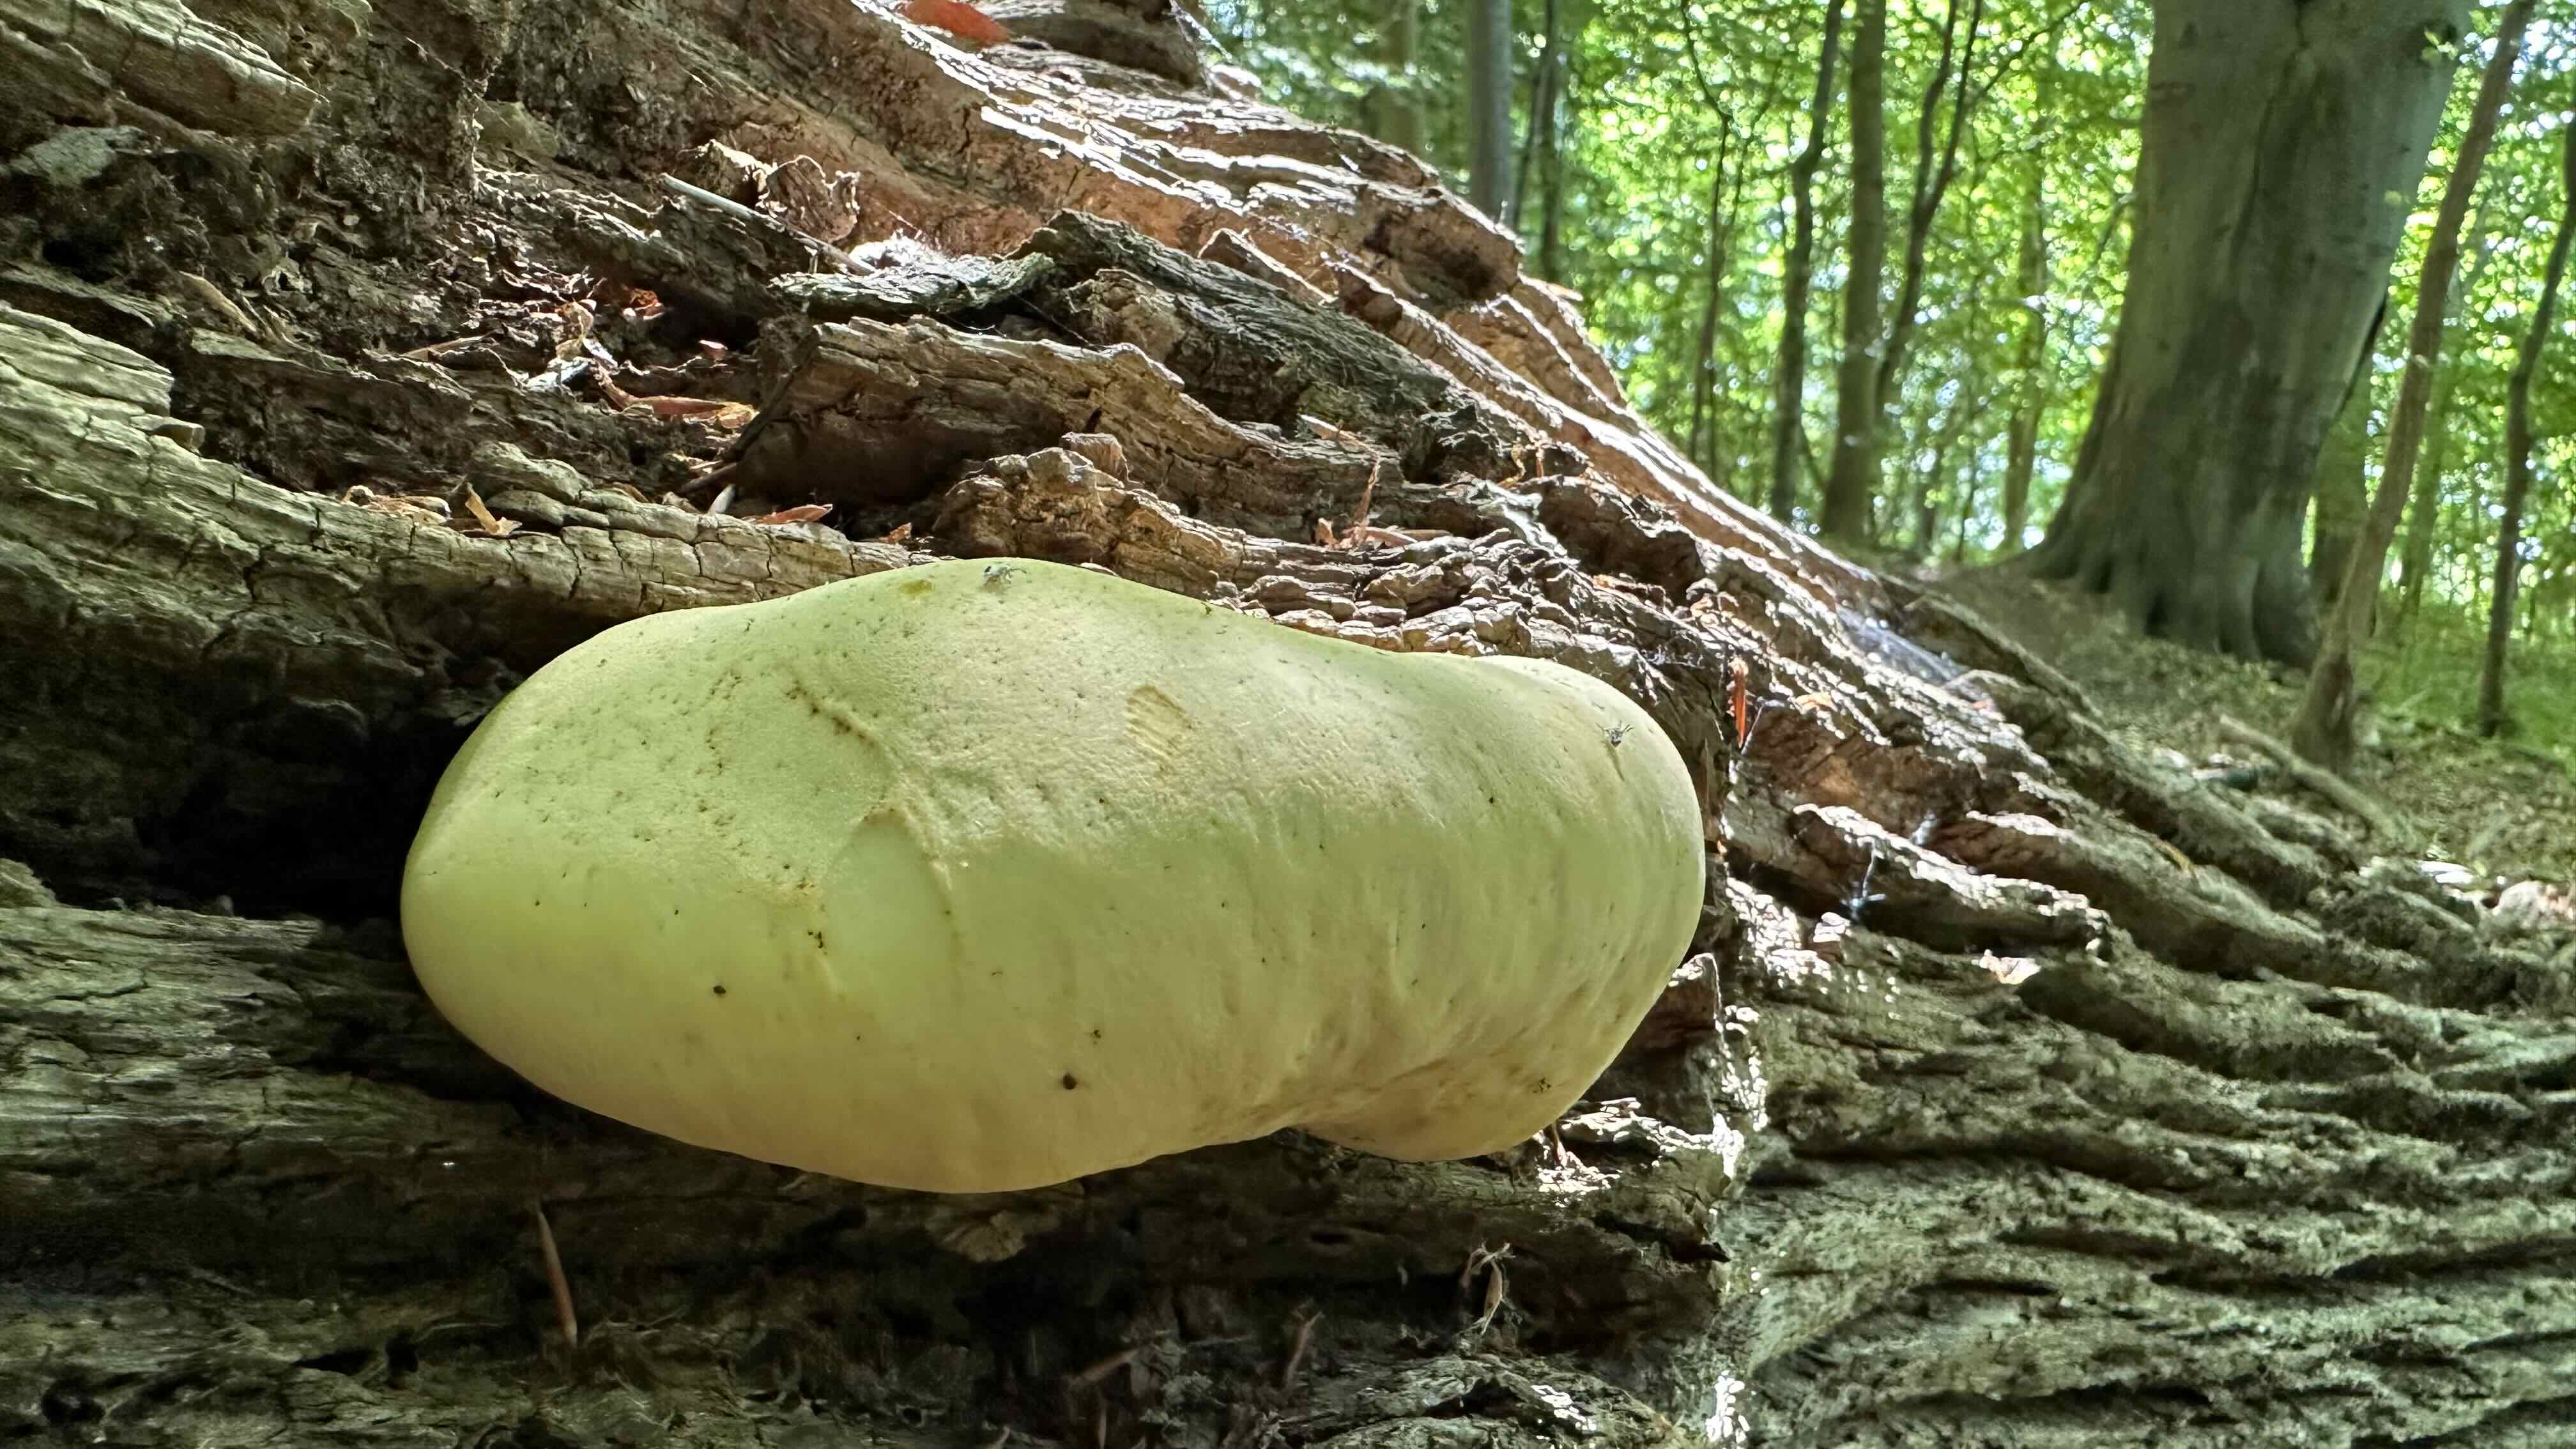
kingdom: Fungi
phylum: Basidiomycota
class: Agaricomycetes
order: Polyporales
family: Fomitopsidaceae
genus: Buglossoporus
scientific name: Buglossoporus quercinus
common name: egetunge
